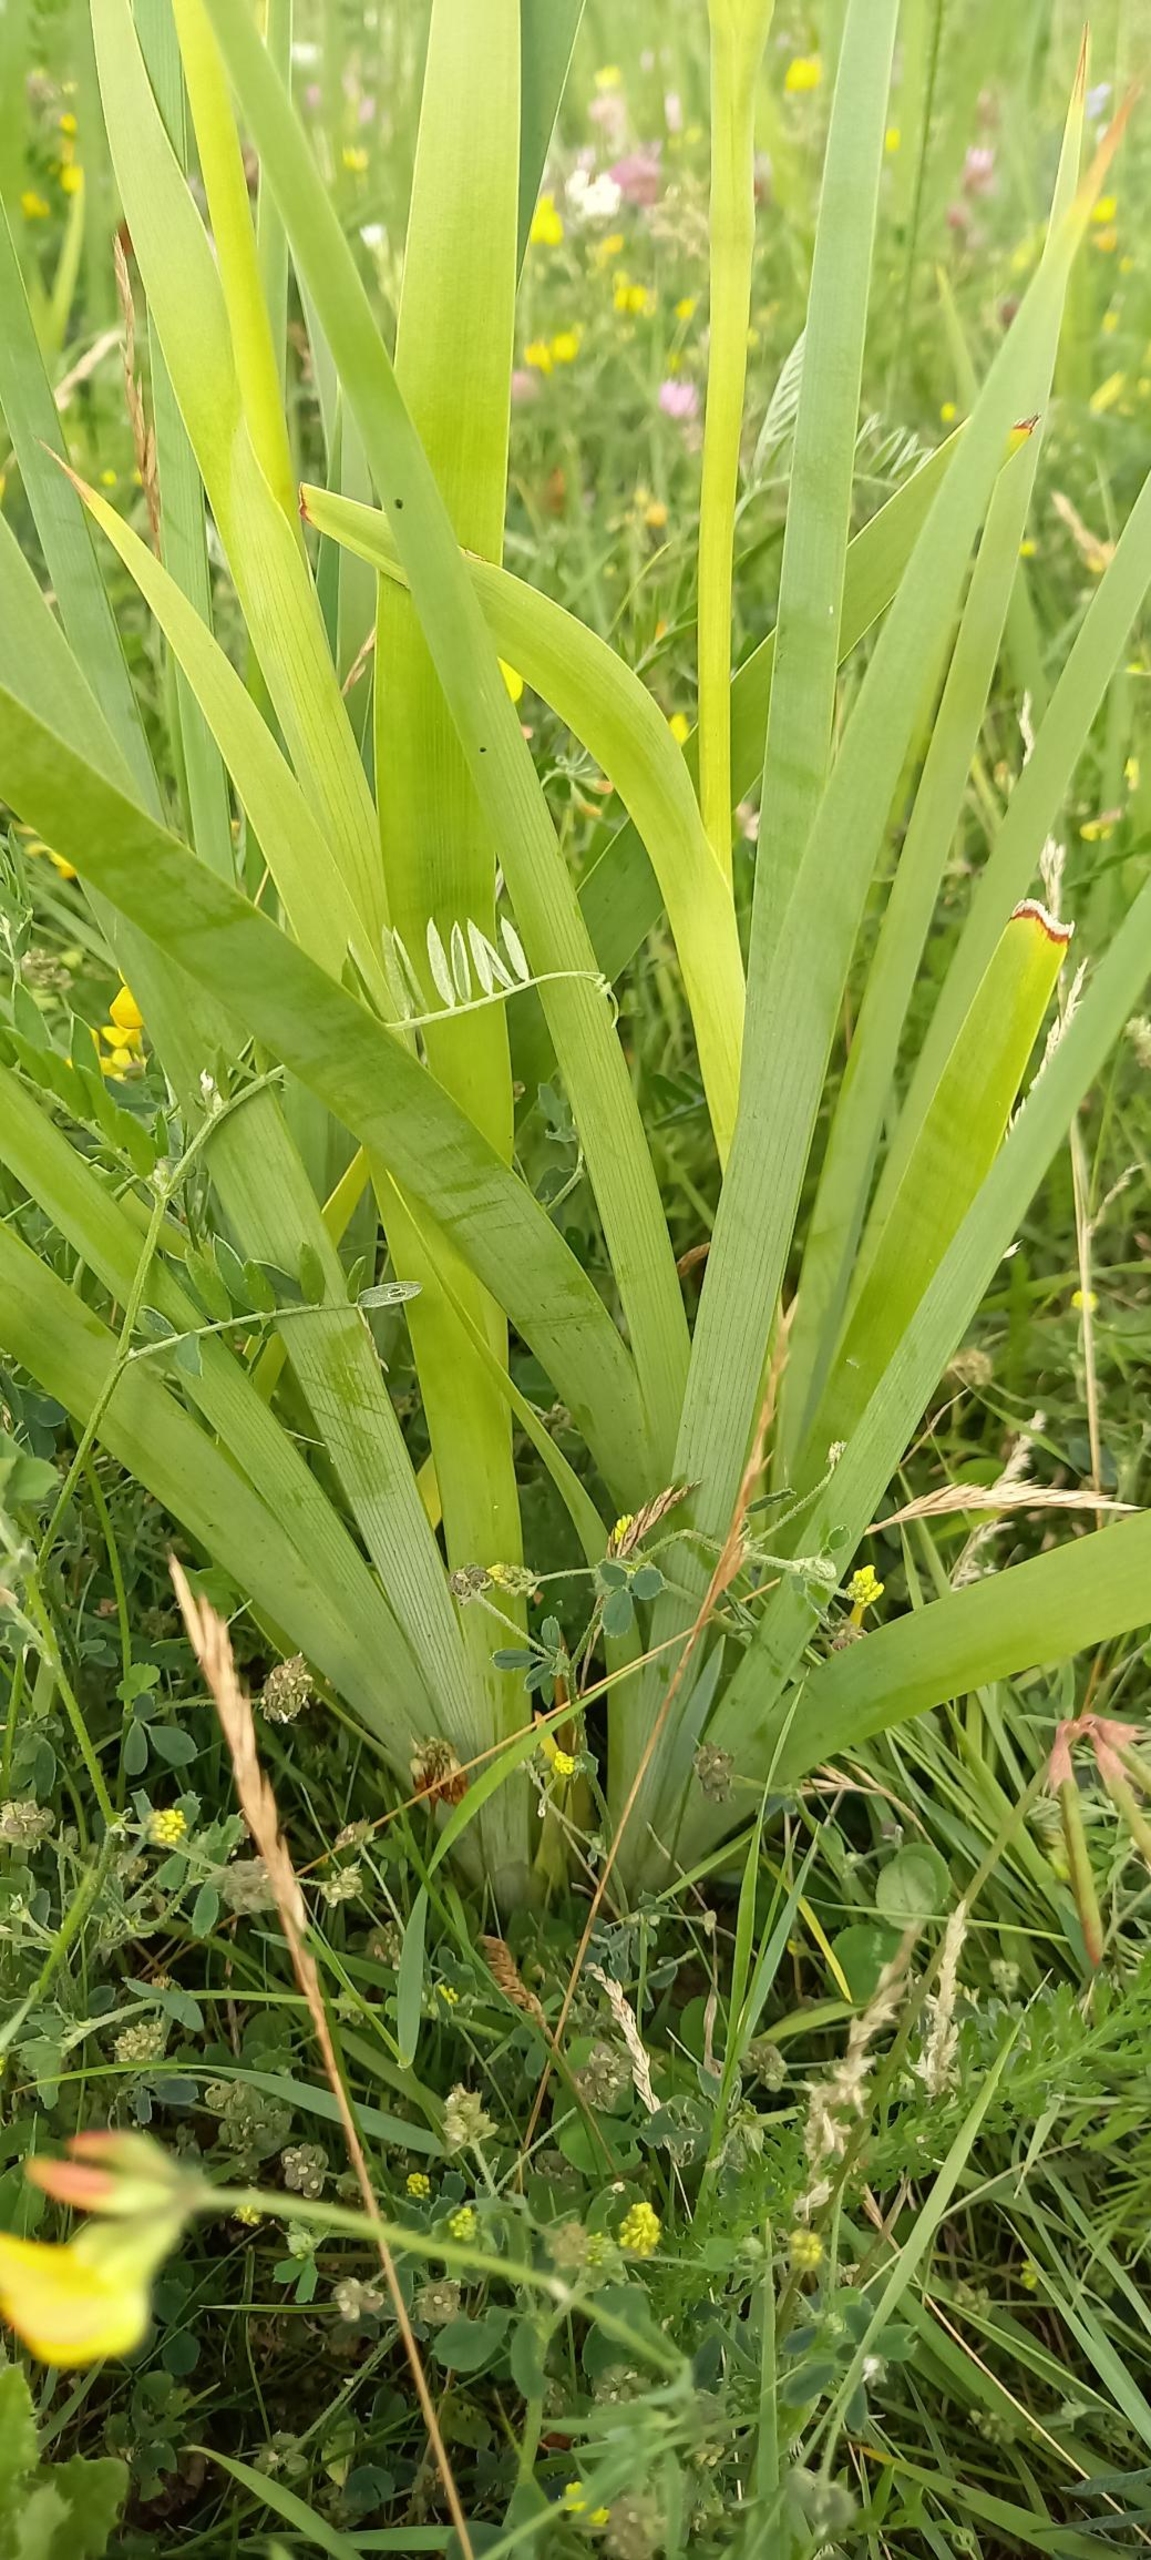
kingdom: Plantae
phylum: Tracheophyta
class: Liliopsida
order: Asparagales
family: Iridaceae
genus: Iris
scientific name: Iris spuria
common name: Blå iris
